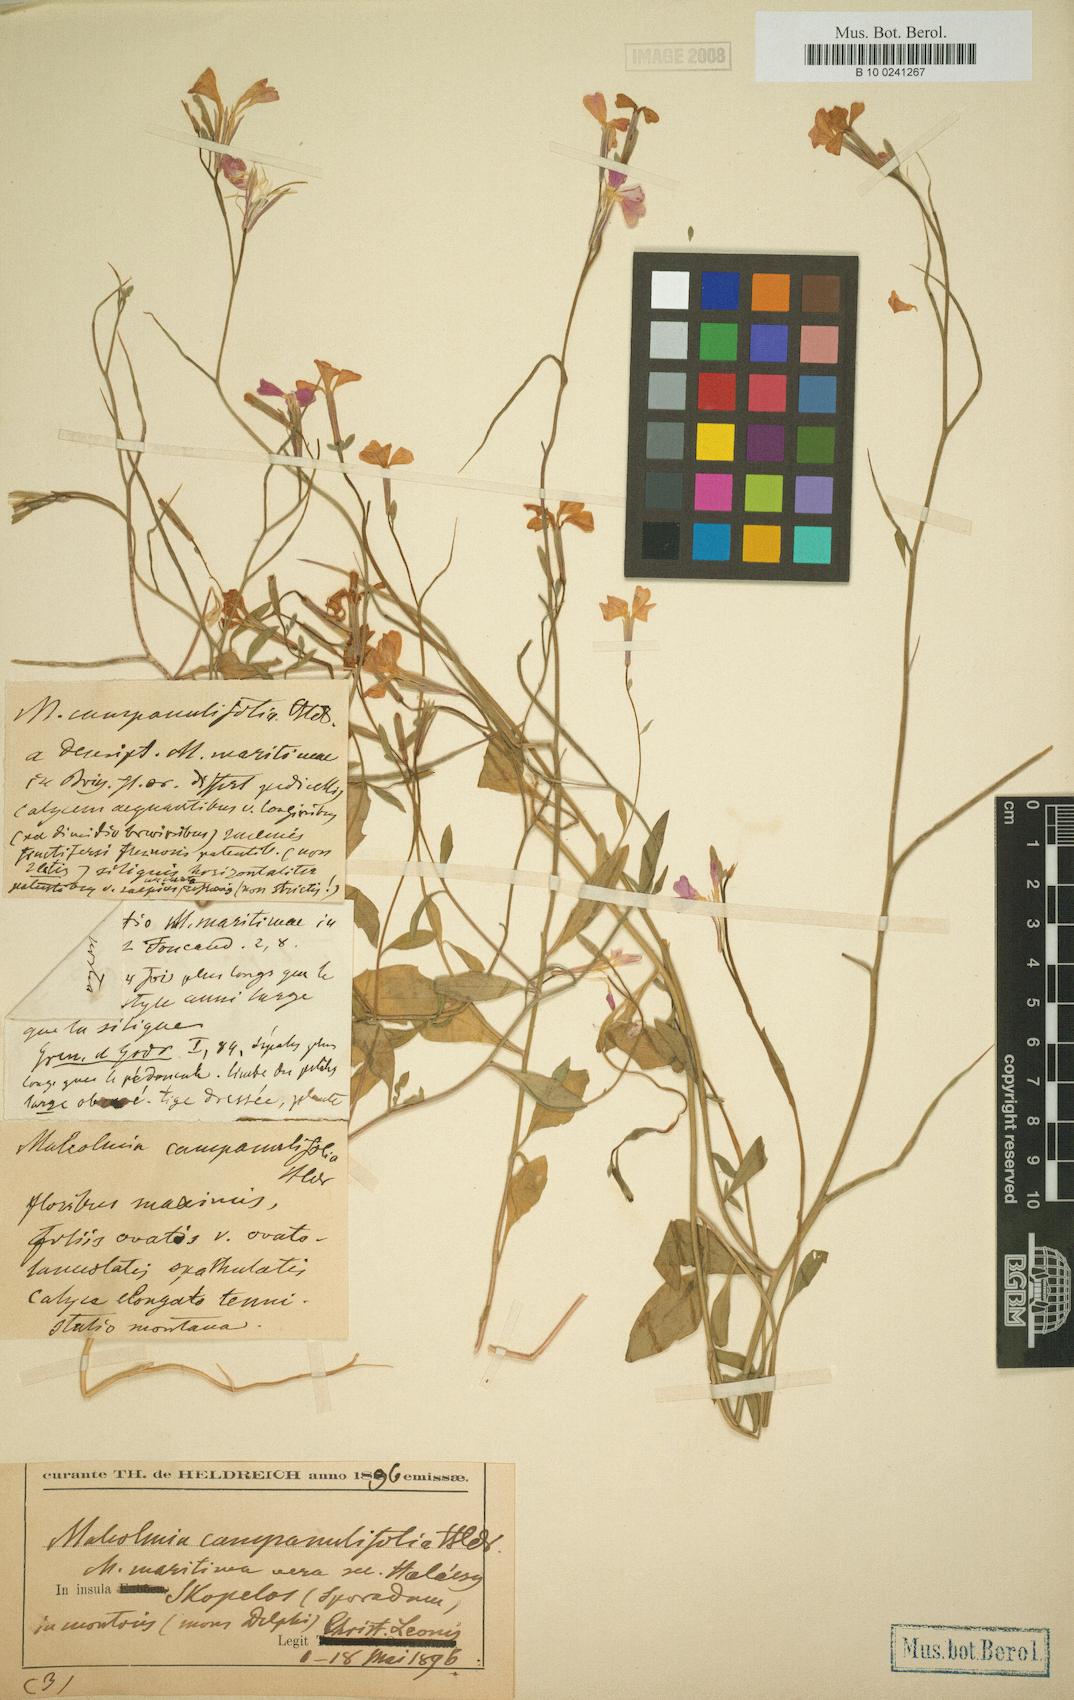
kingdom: Plantae
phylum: Tracheophyta
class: Magnoliopsida
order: Brassicales
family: Brassicaceae
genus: Malcolmia
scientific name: Malcolmia
